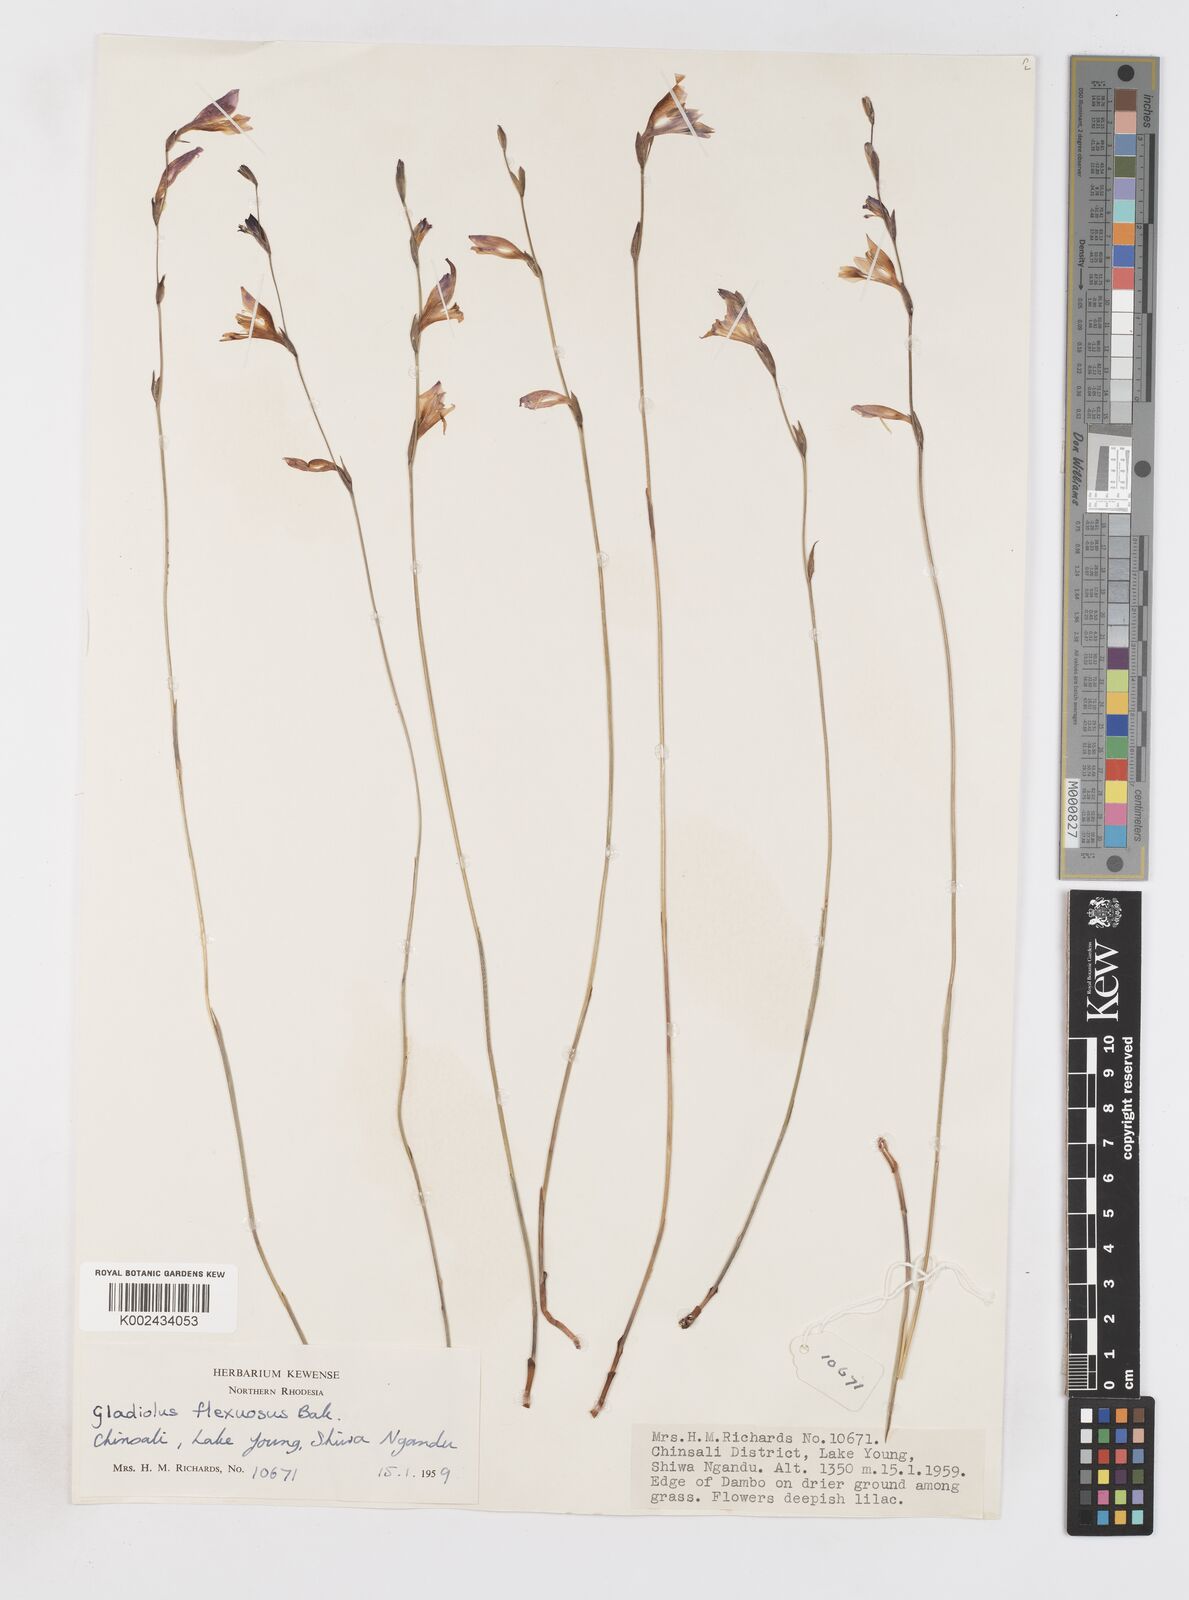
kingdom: Plantae
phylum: Tracheophyta
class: Liliopsida
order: Asparagales
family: Iridaceae
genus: Gladiolus
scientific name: Gladiolus atropurpureus
